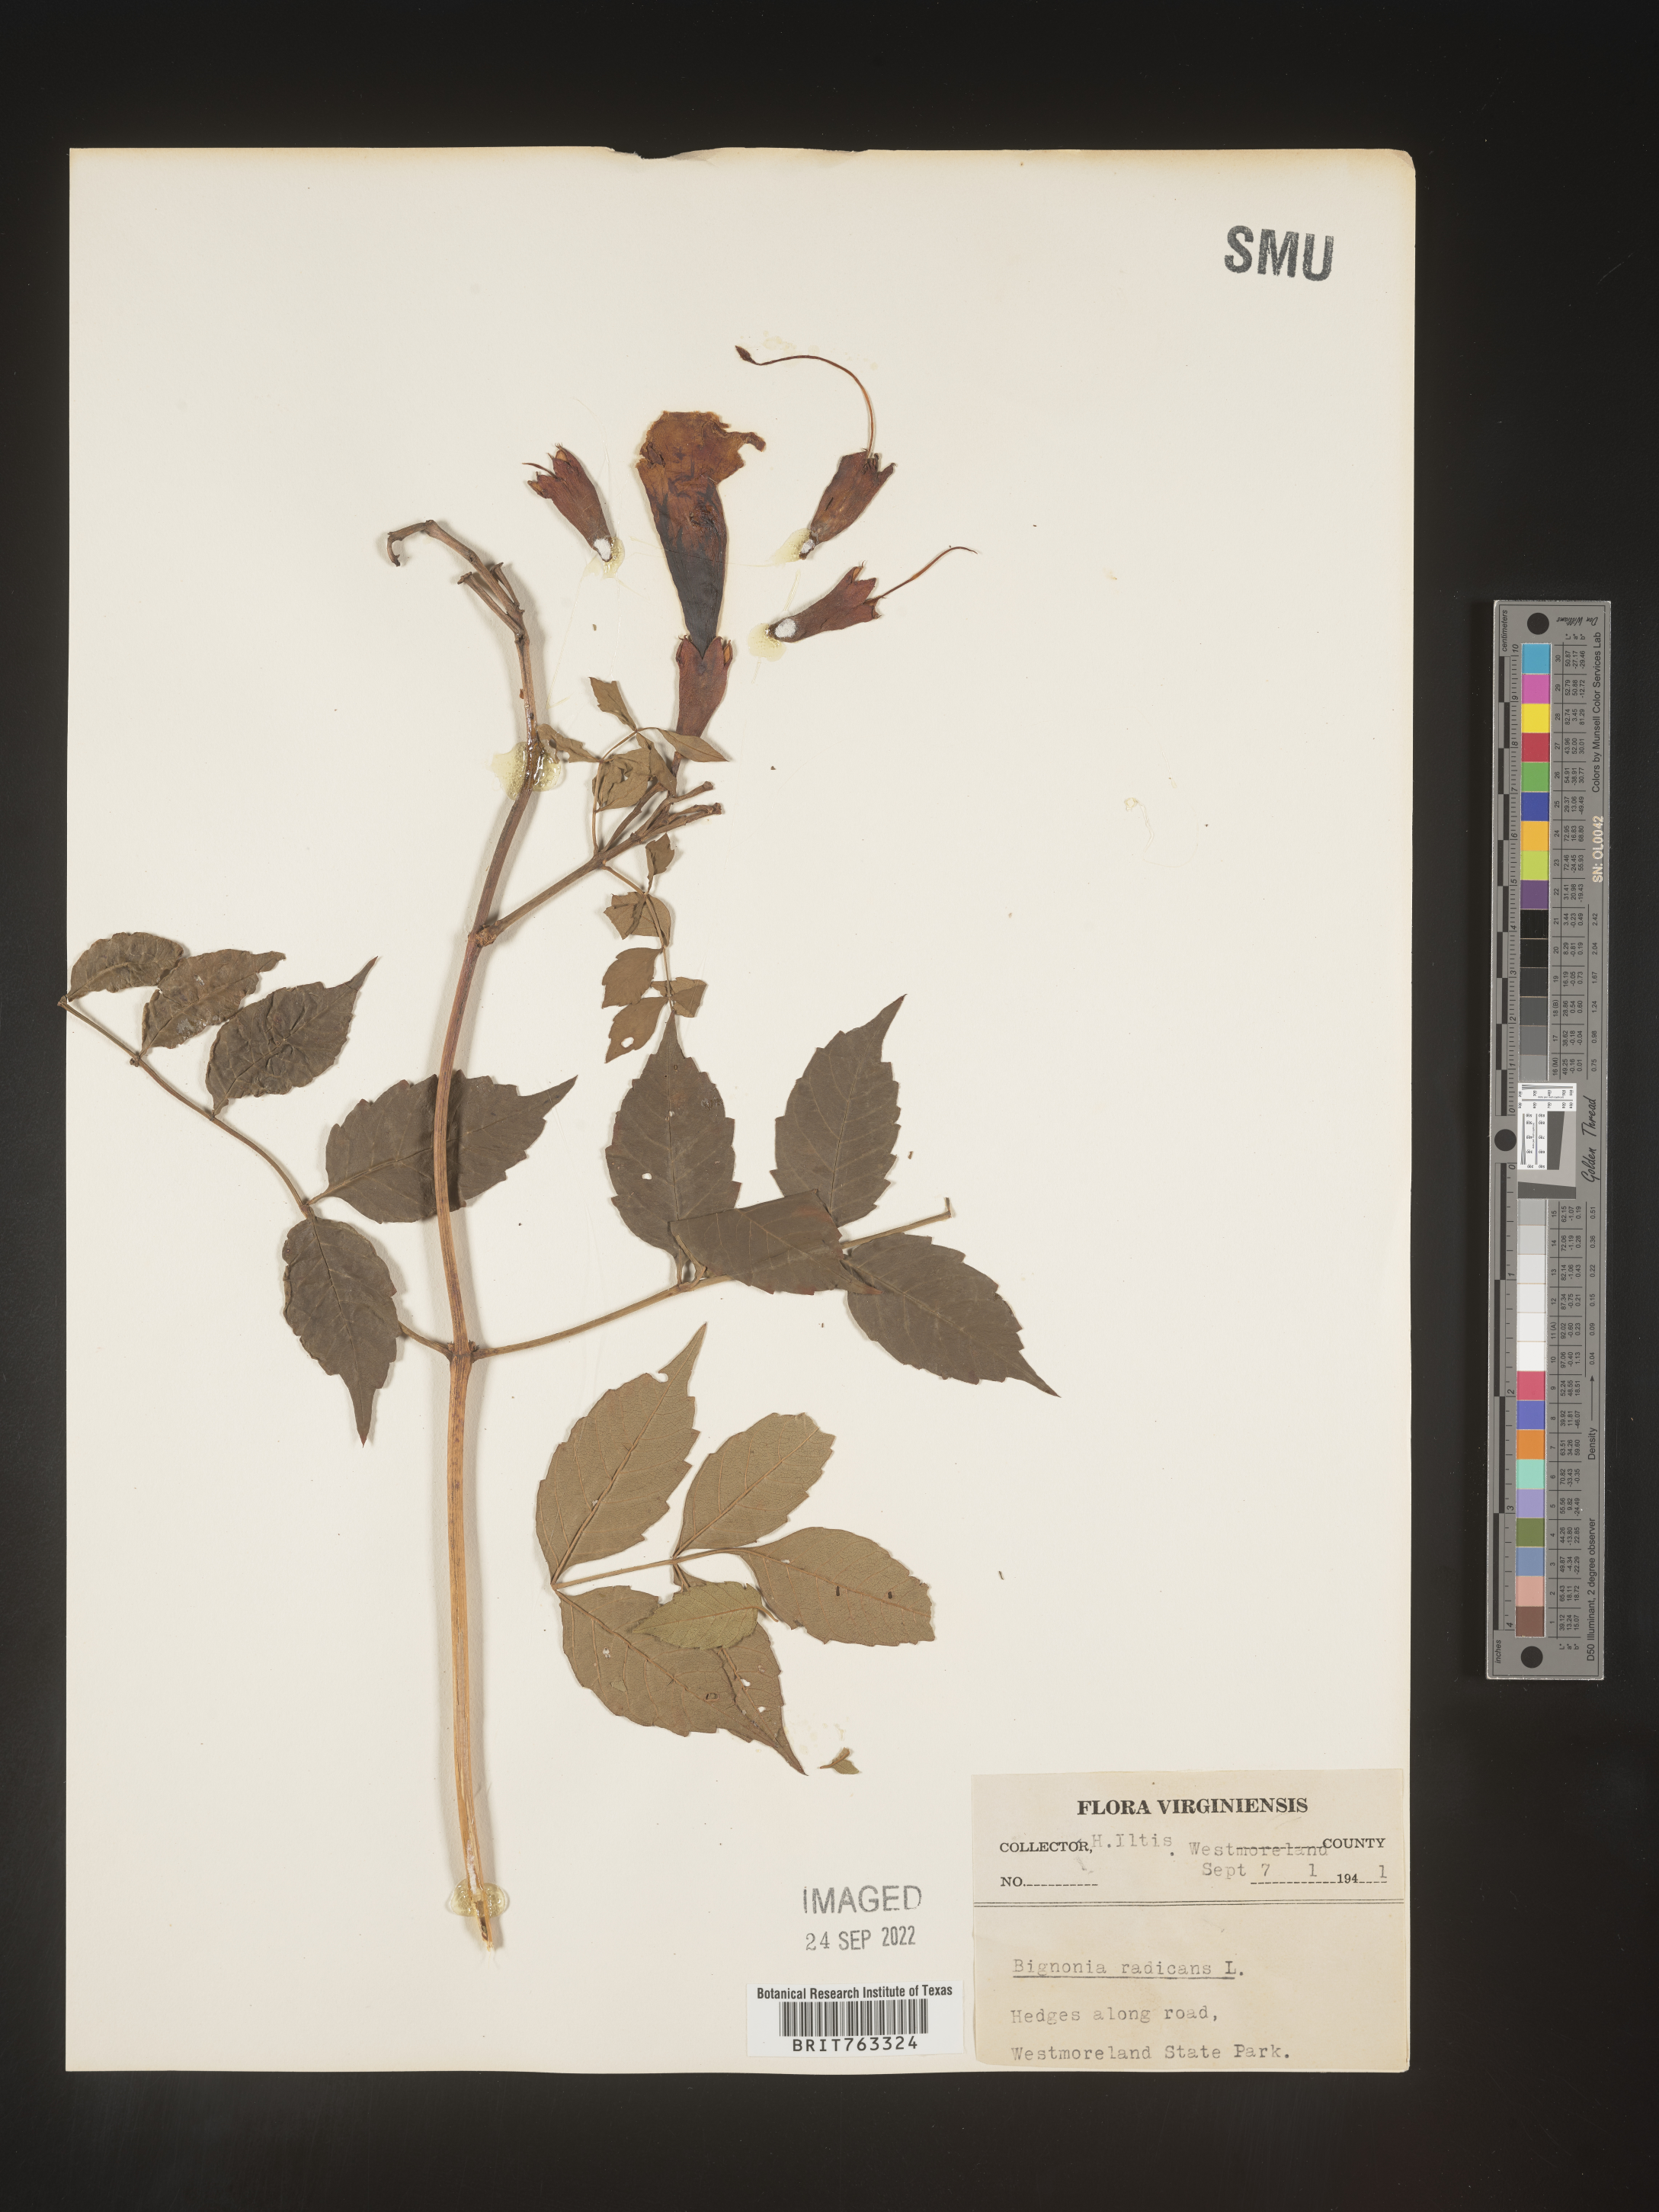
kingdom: Plantae
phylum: Tracheophyta
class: Magnoliopsida
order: Lamiales
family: Bignoniaceae
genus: Campsis
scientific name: Campsis radicans
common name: Trumpet-creeper
